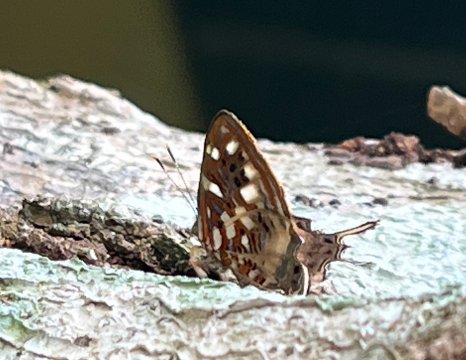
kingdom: Animalia
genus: Charis
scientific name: Charis Sarota chrysus
